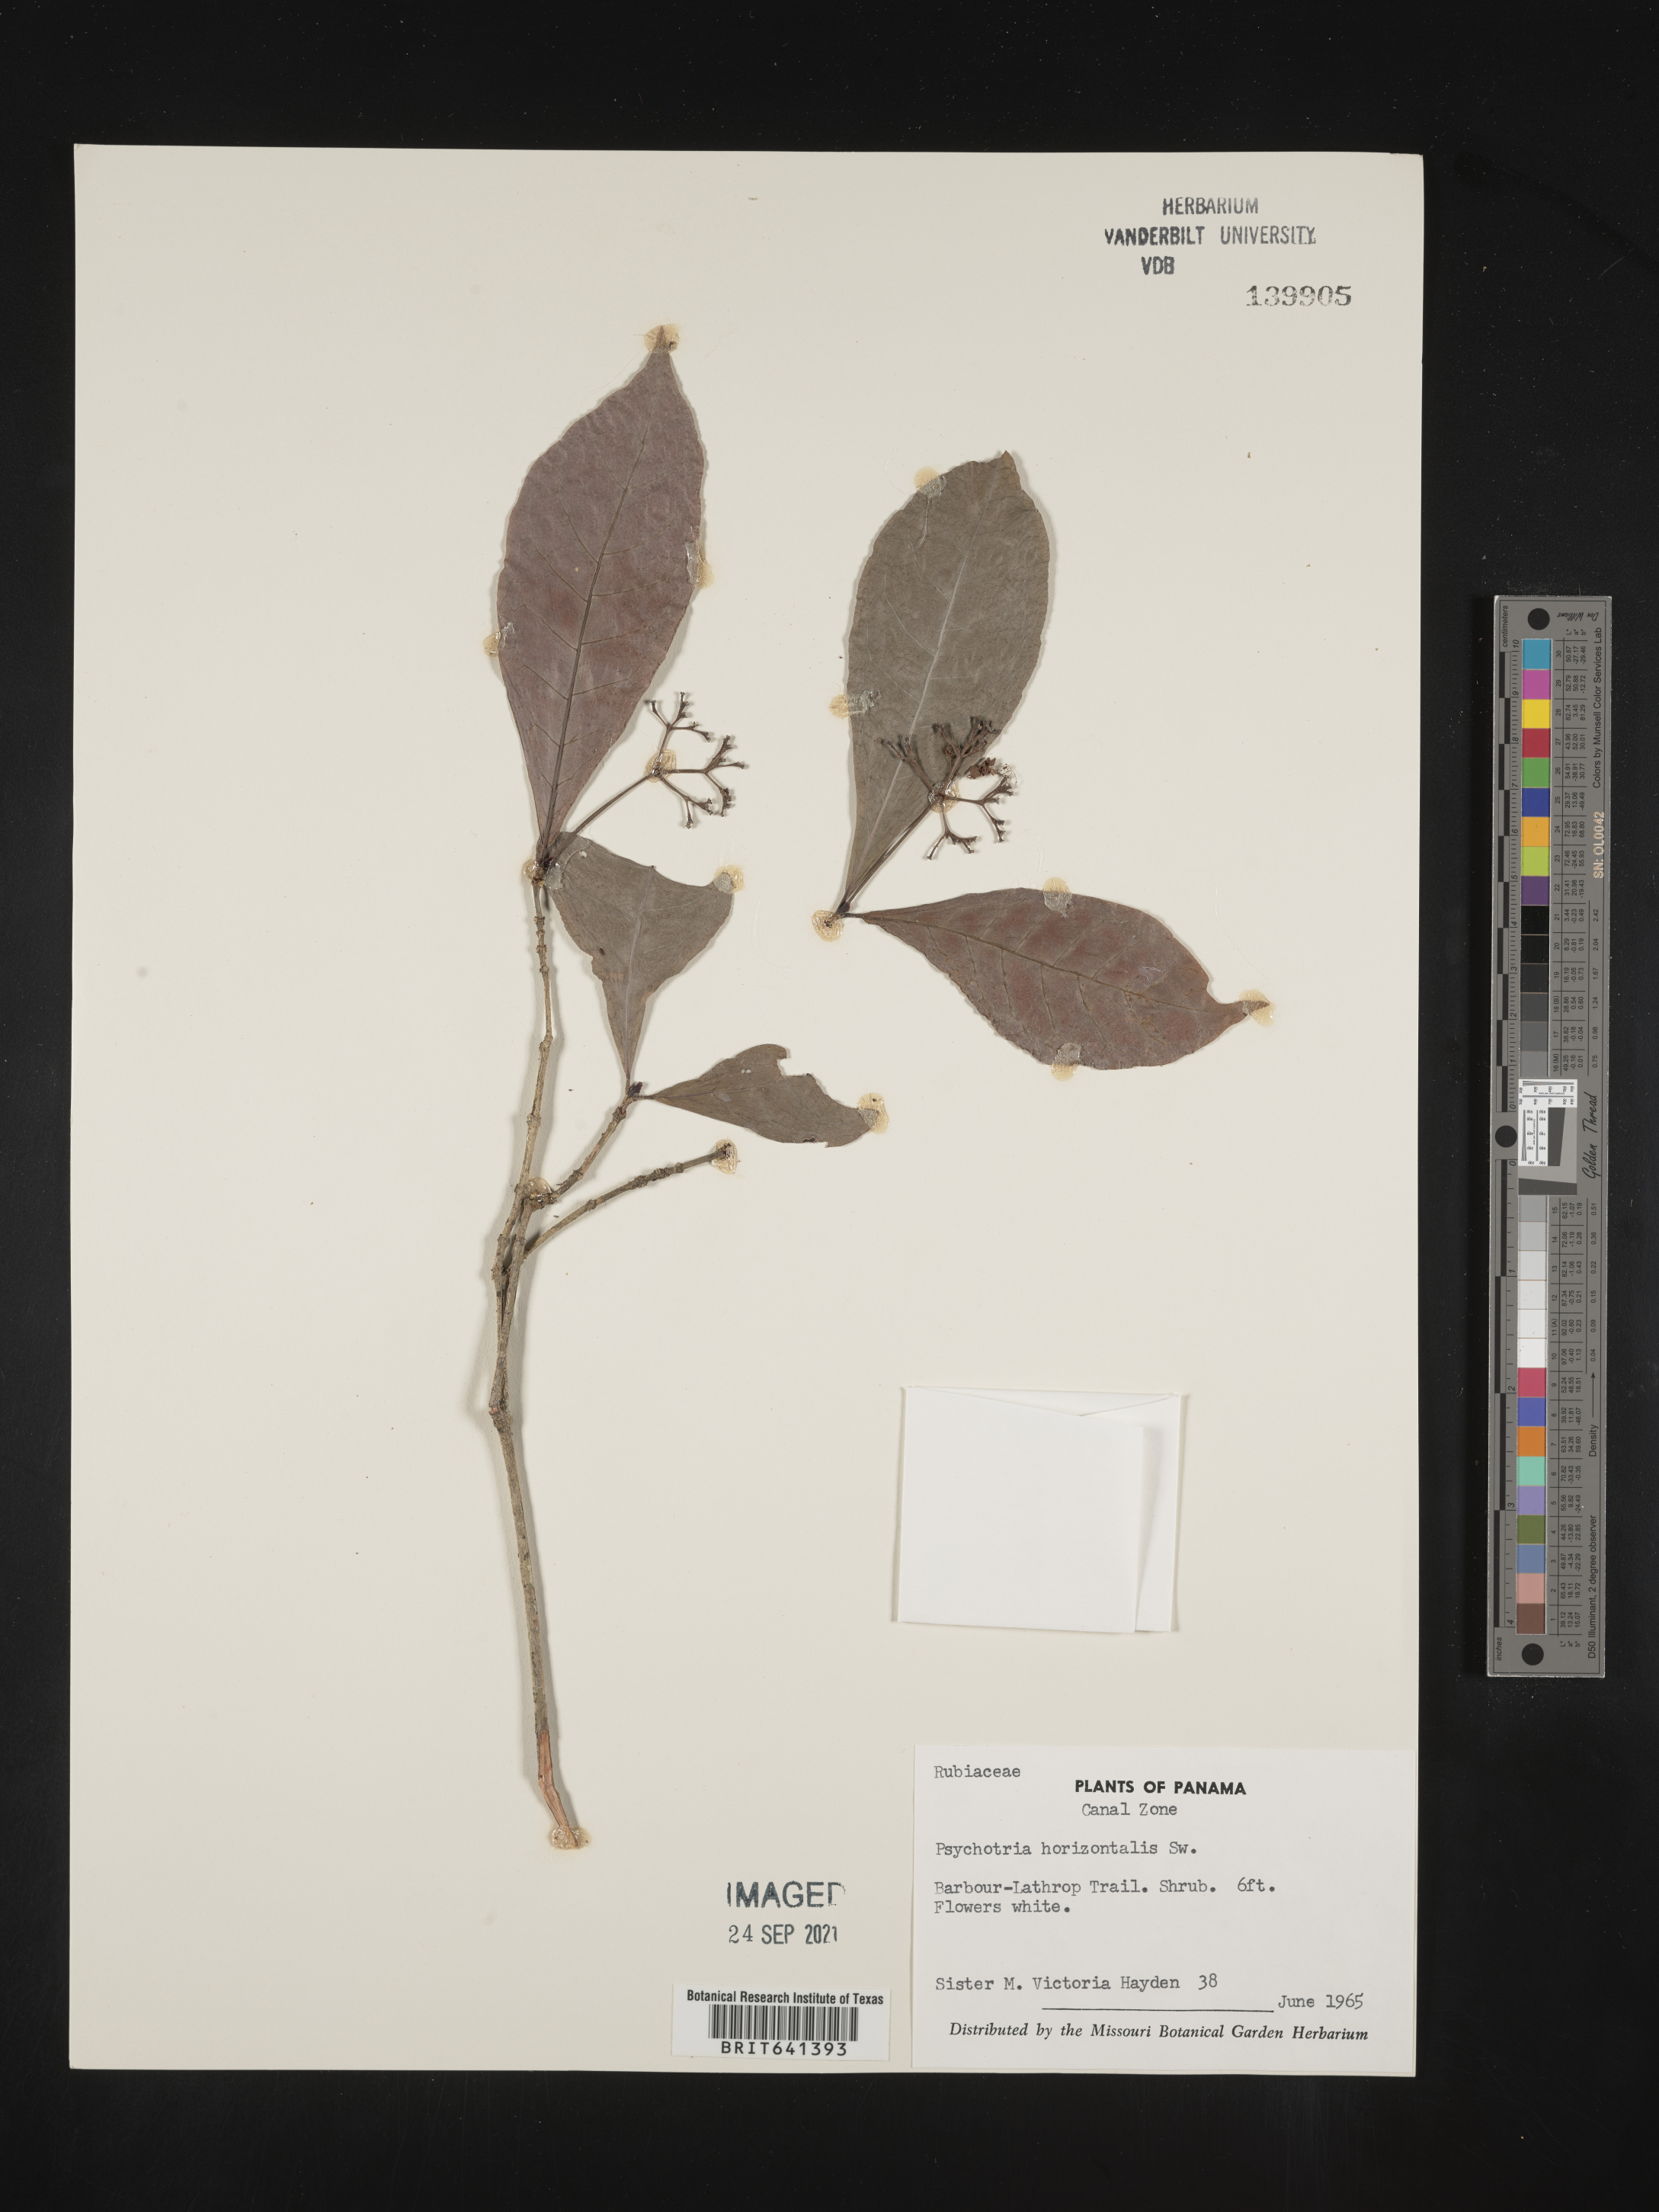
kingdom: Plantae
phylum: Tracheophyta
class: Magnoliopsida
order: Gentianales
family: Rubiaceae
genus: Psychotria
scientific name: Psychotria
